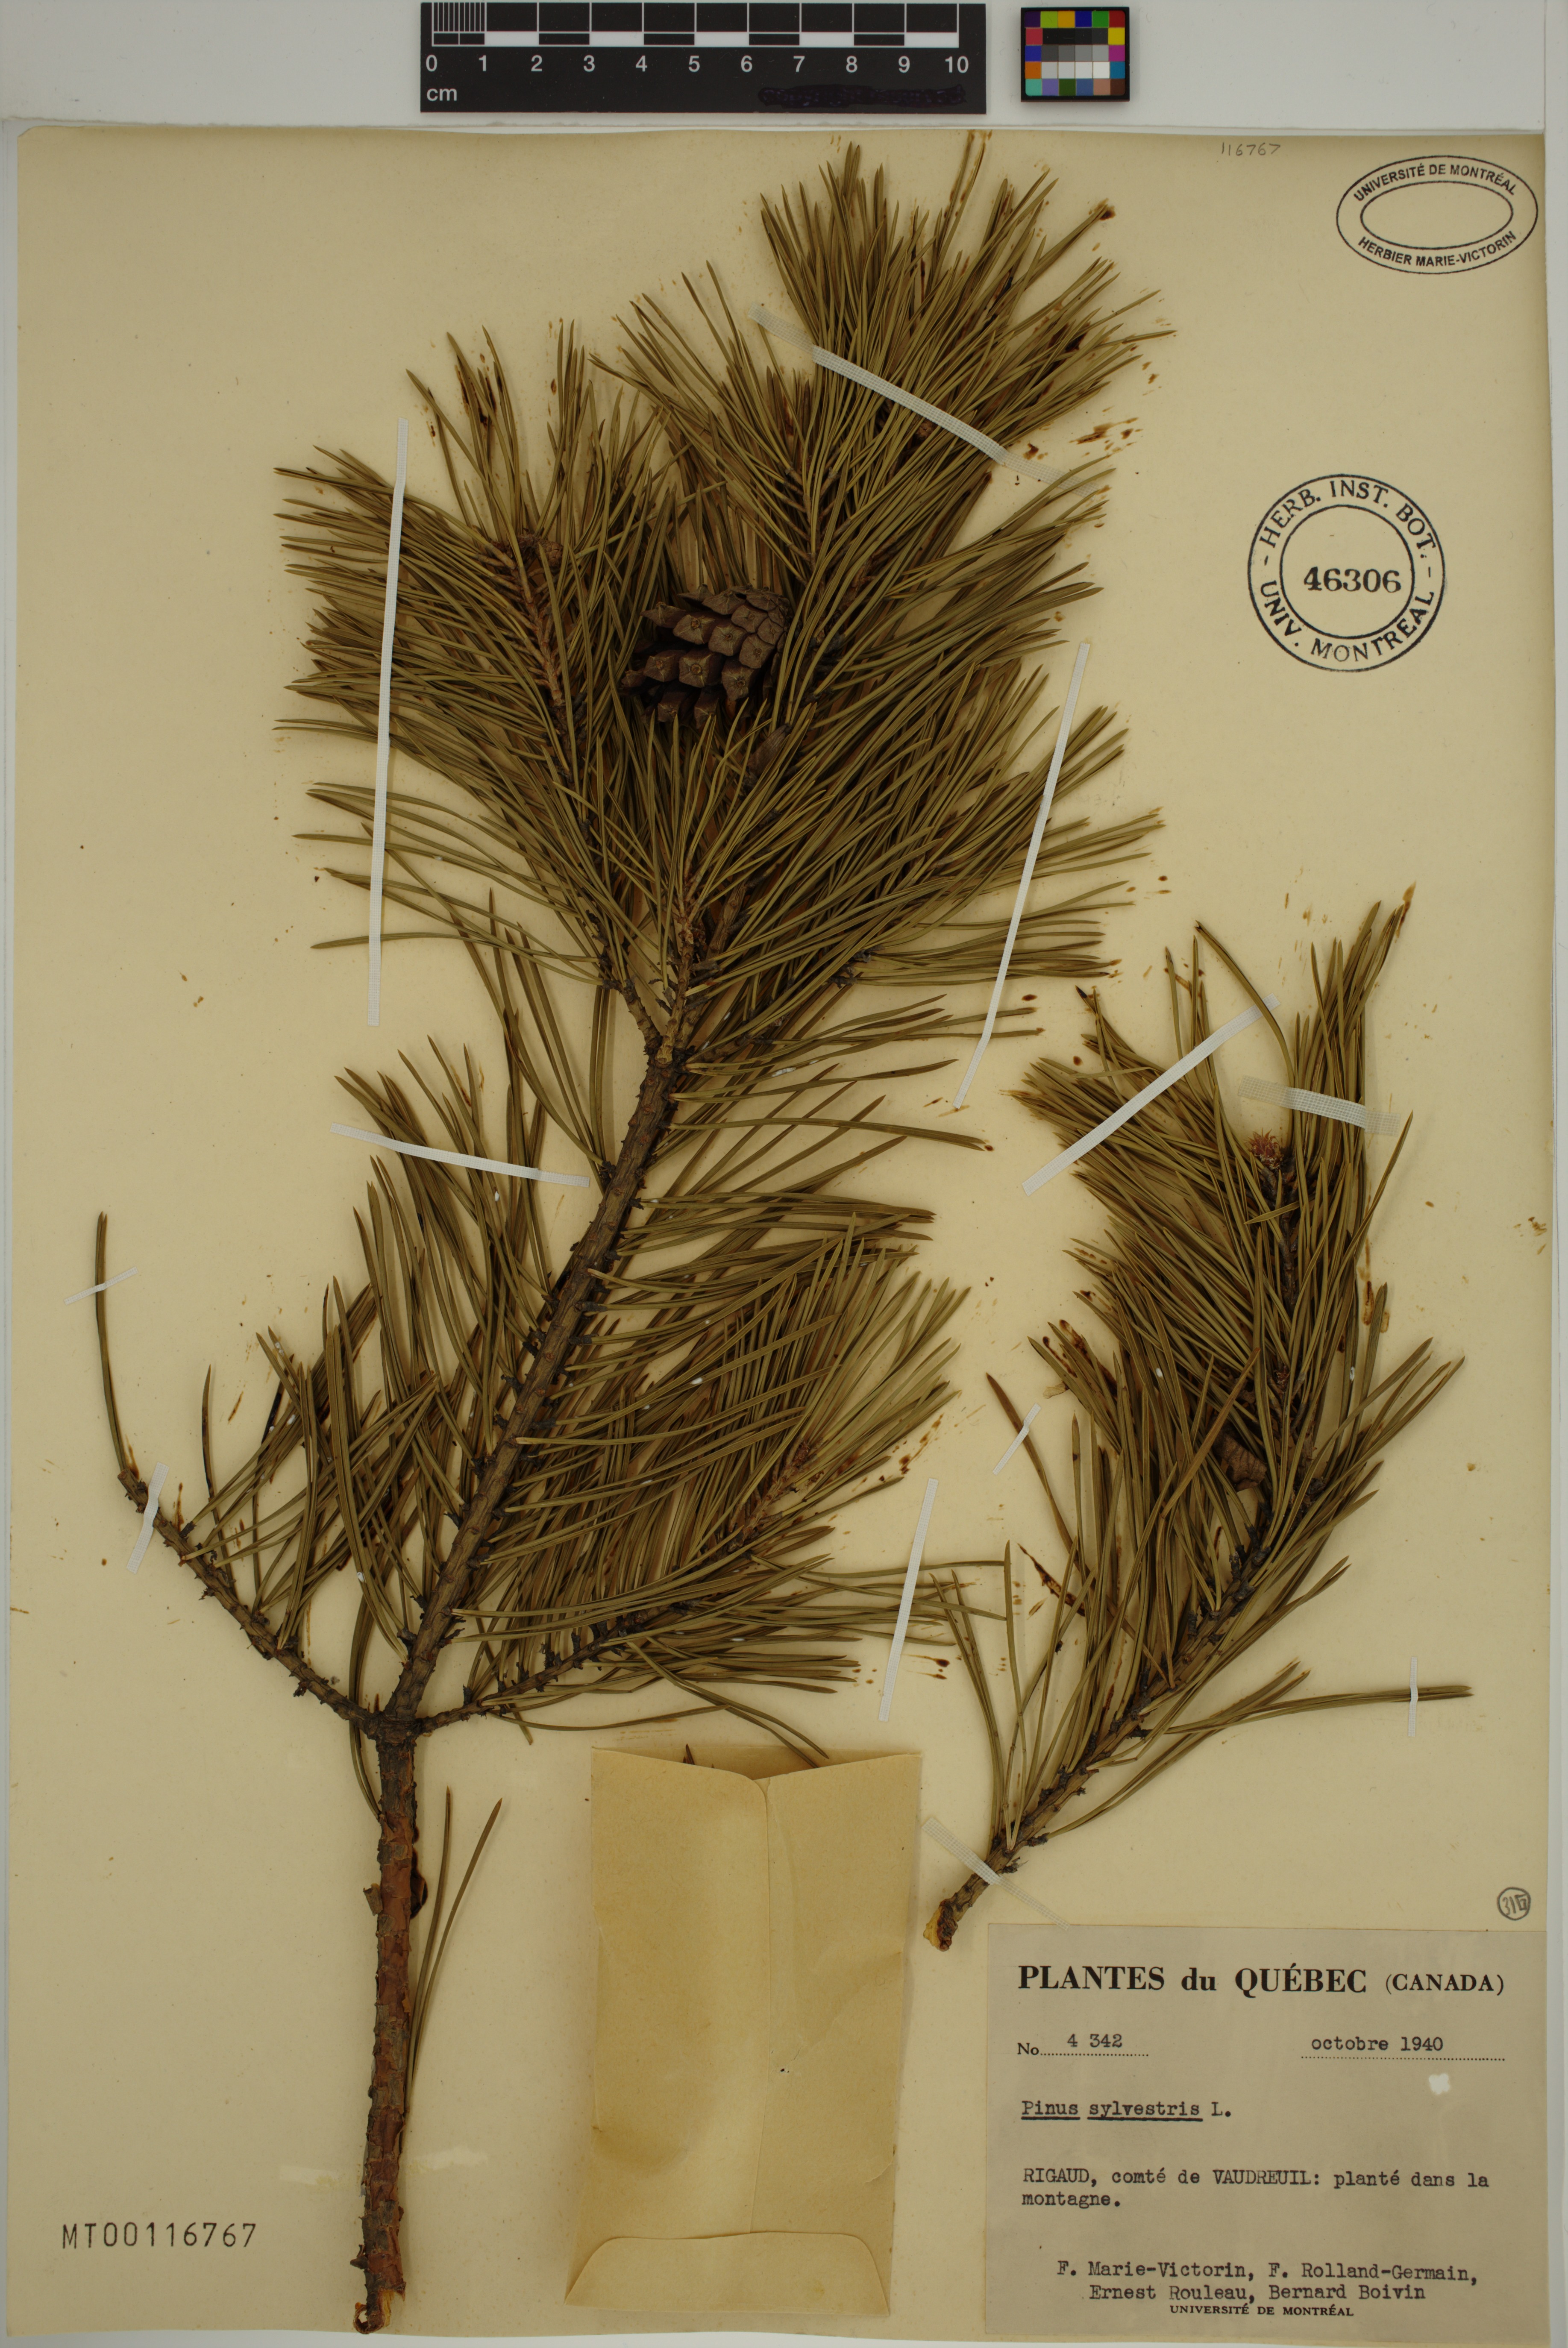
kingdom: Plantae
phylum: Tracheophyta
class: Pinopsida
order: Pinales
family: Pinaceae
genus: Pinus
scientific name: Pinus sylvestris
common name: Scots pine
